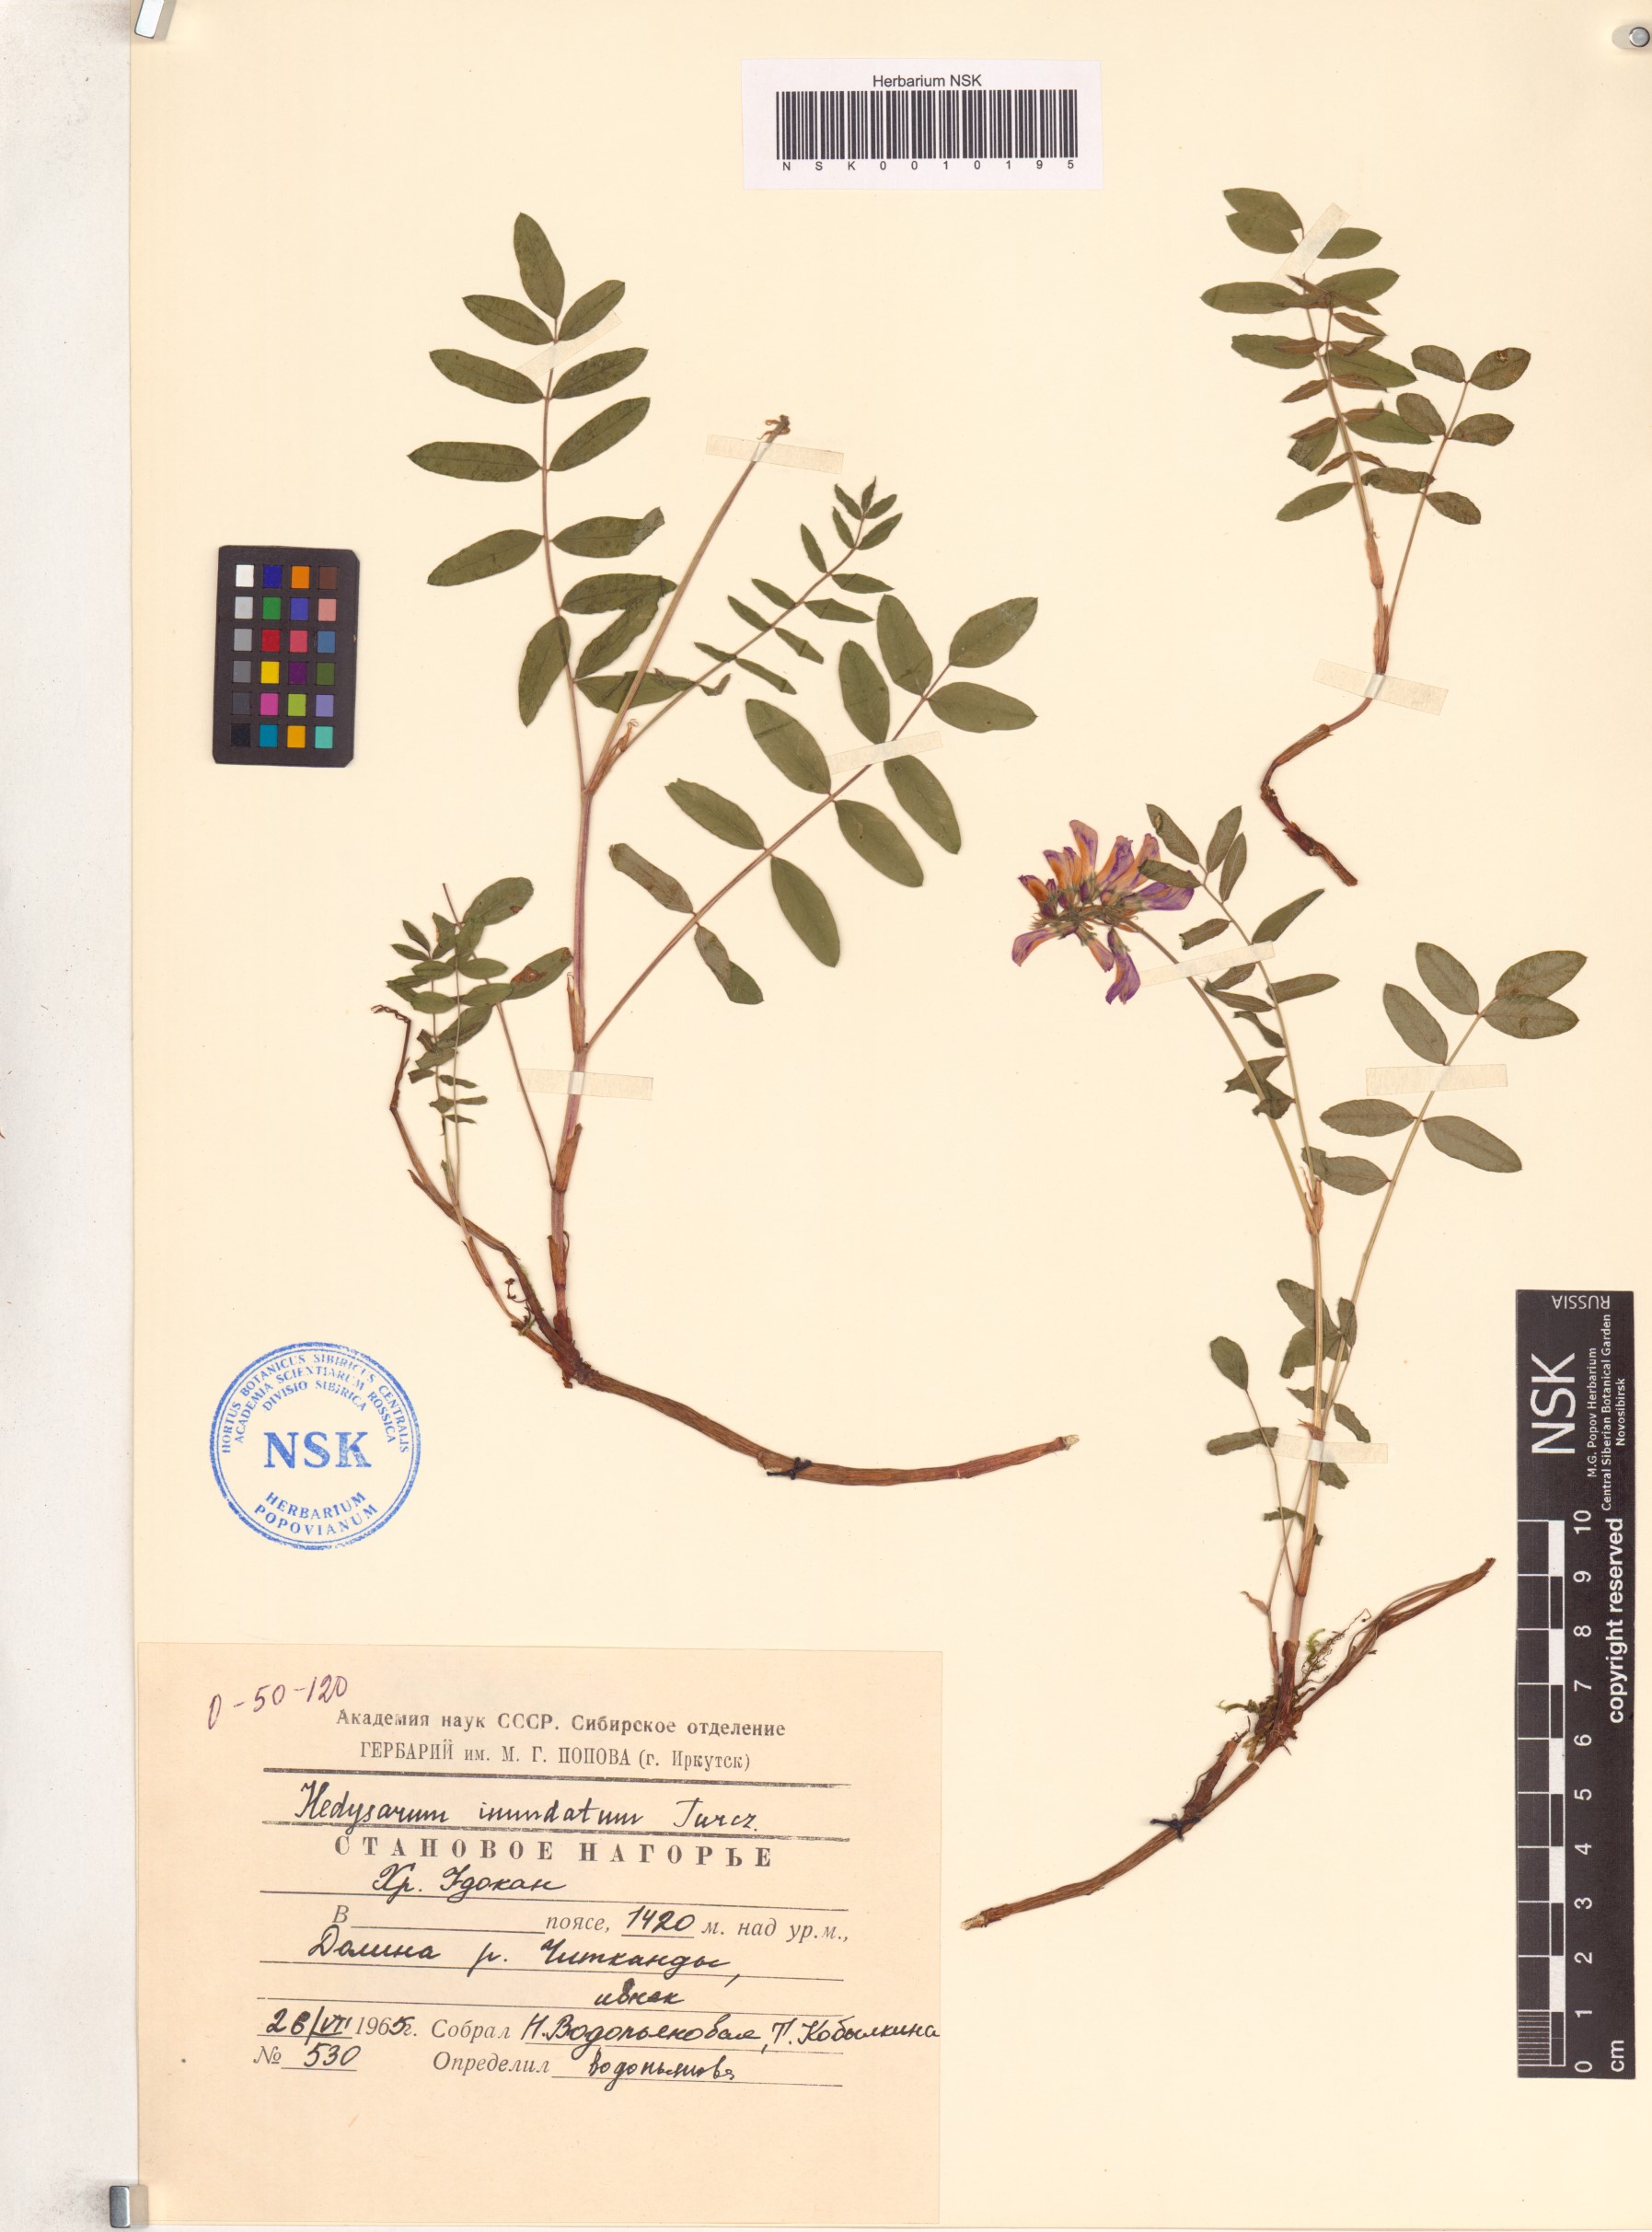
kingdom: Plantae
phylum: Tracheophyta
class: Magnoliopsida
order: Fabales
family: Fabaceae
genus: Hedysarum
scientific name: Hedysarum inundatum
